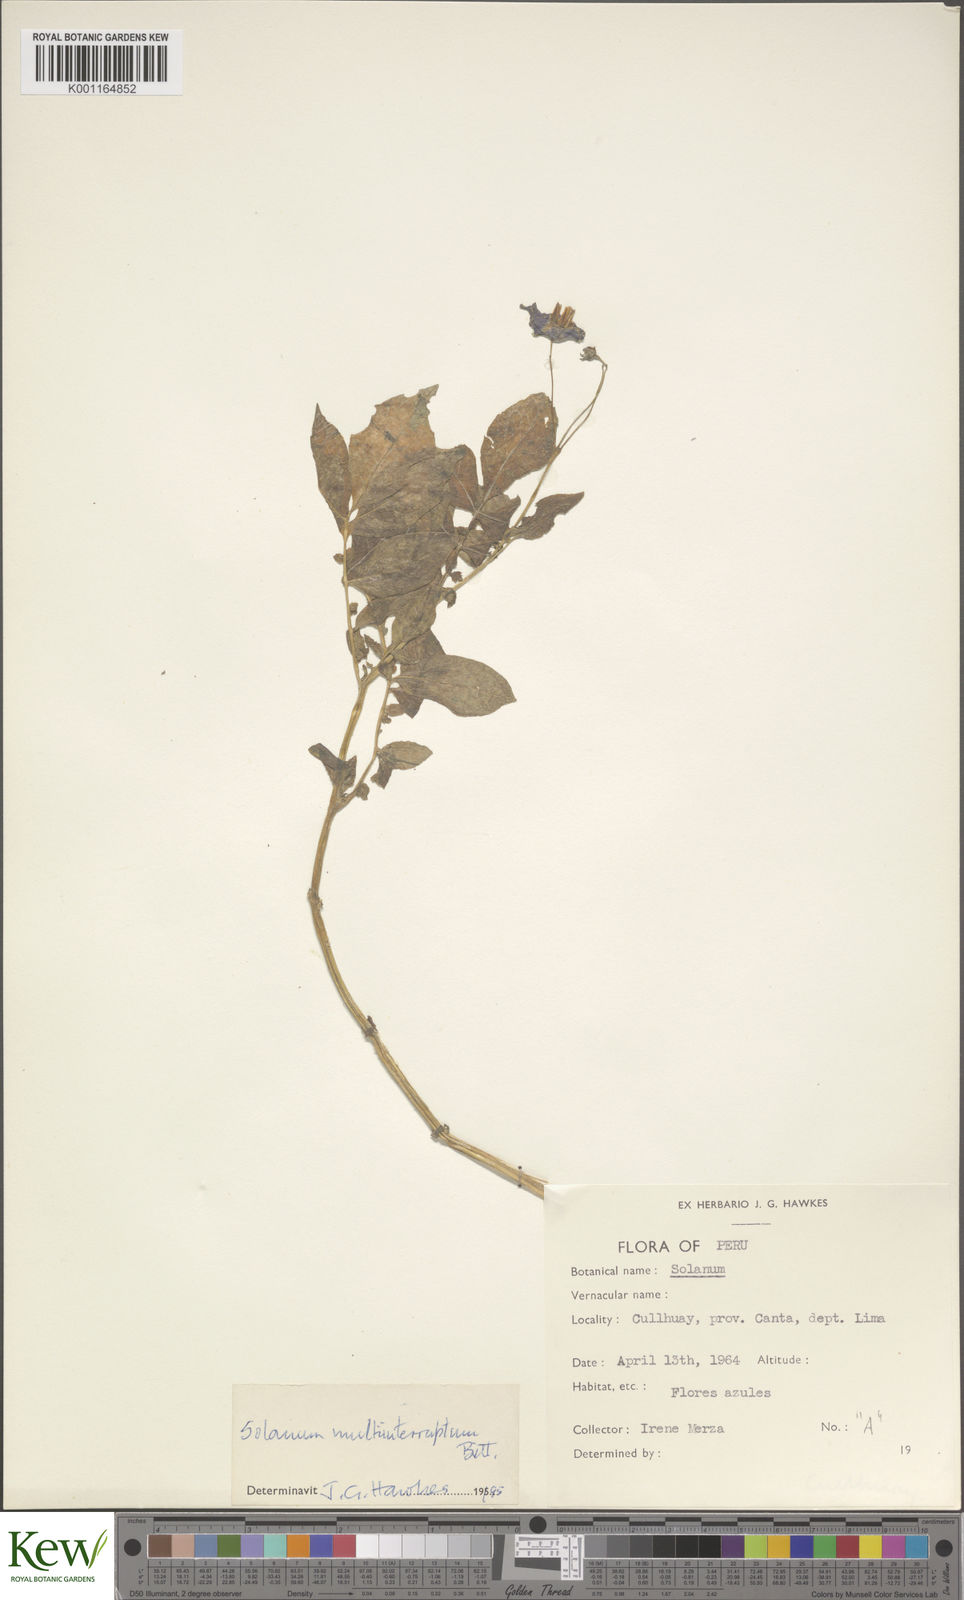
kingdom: Plantae
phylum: Tracheophyta
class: Magnoliopsida
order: Solanales
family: Solanaceae
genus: Solanum
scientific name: Solanum multiinterruptum
